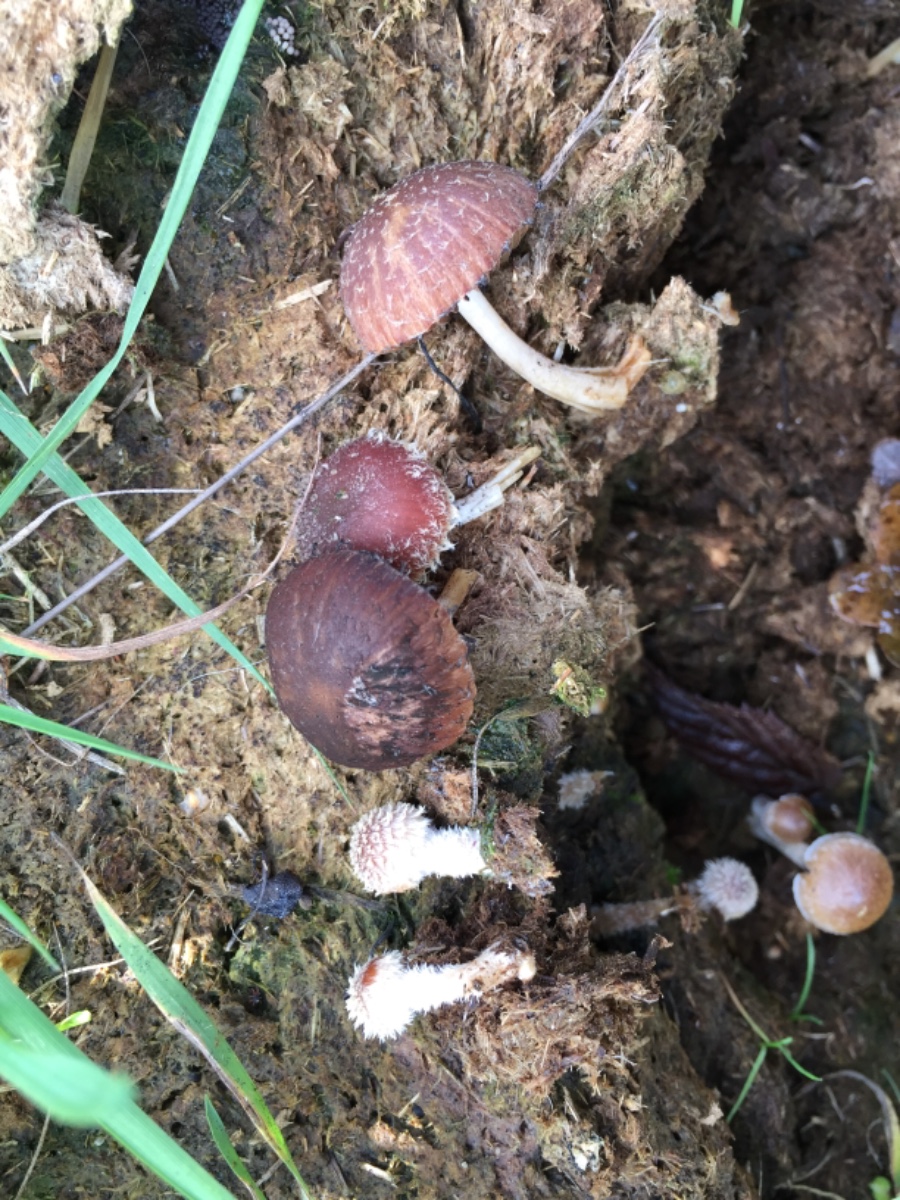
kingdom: Fungi
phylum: Basidiomycota
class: Agaricomycetes
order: Agaricales
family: Psathyrellaceae
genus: Psathyrella
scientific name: Psathyrella
